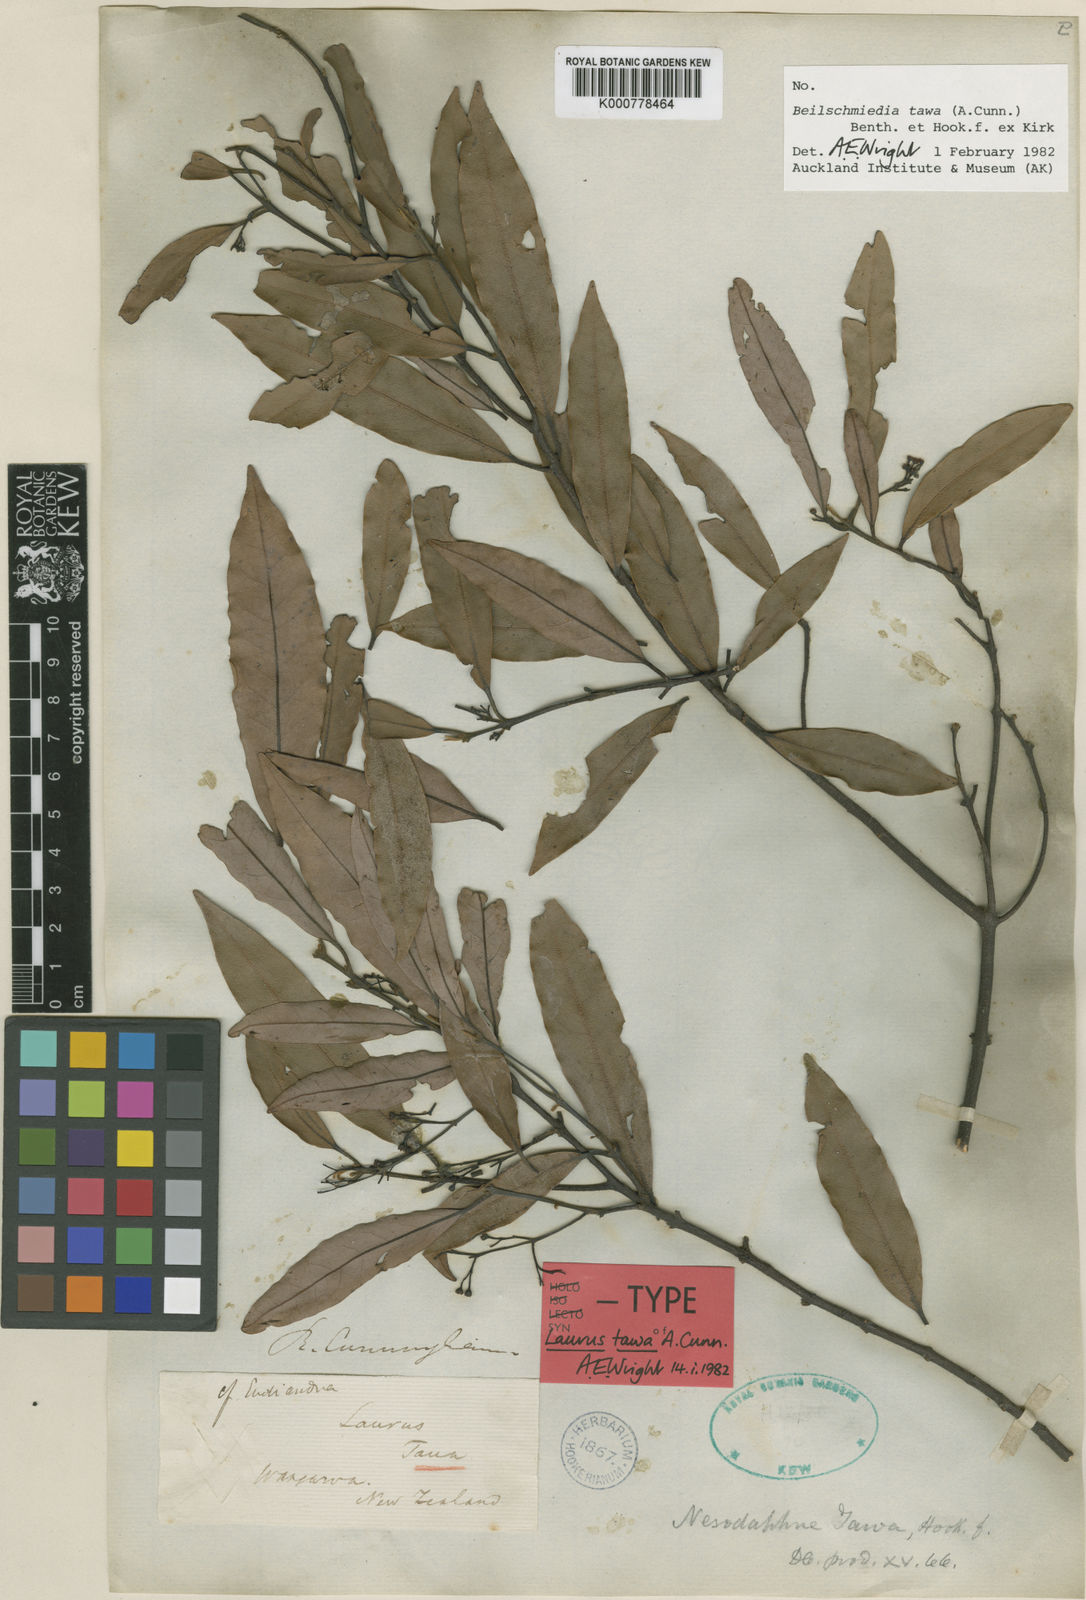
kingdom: Plantae
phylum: Tracheophyta
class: Magnoliopsida
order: Laurales
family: Lauraceae
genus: Beilschmiedia
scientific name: Beilschmiedia
